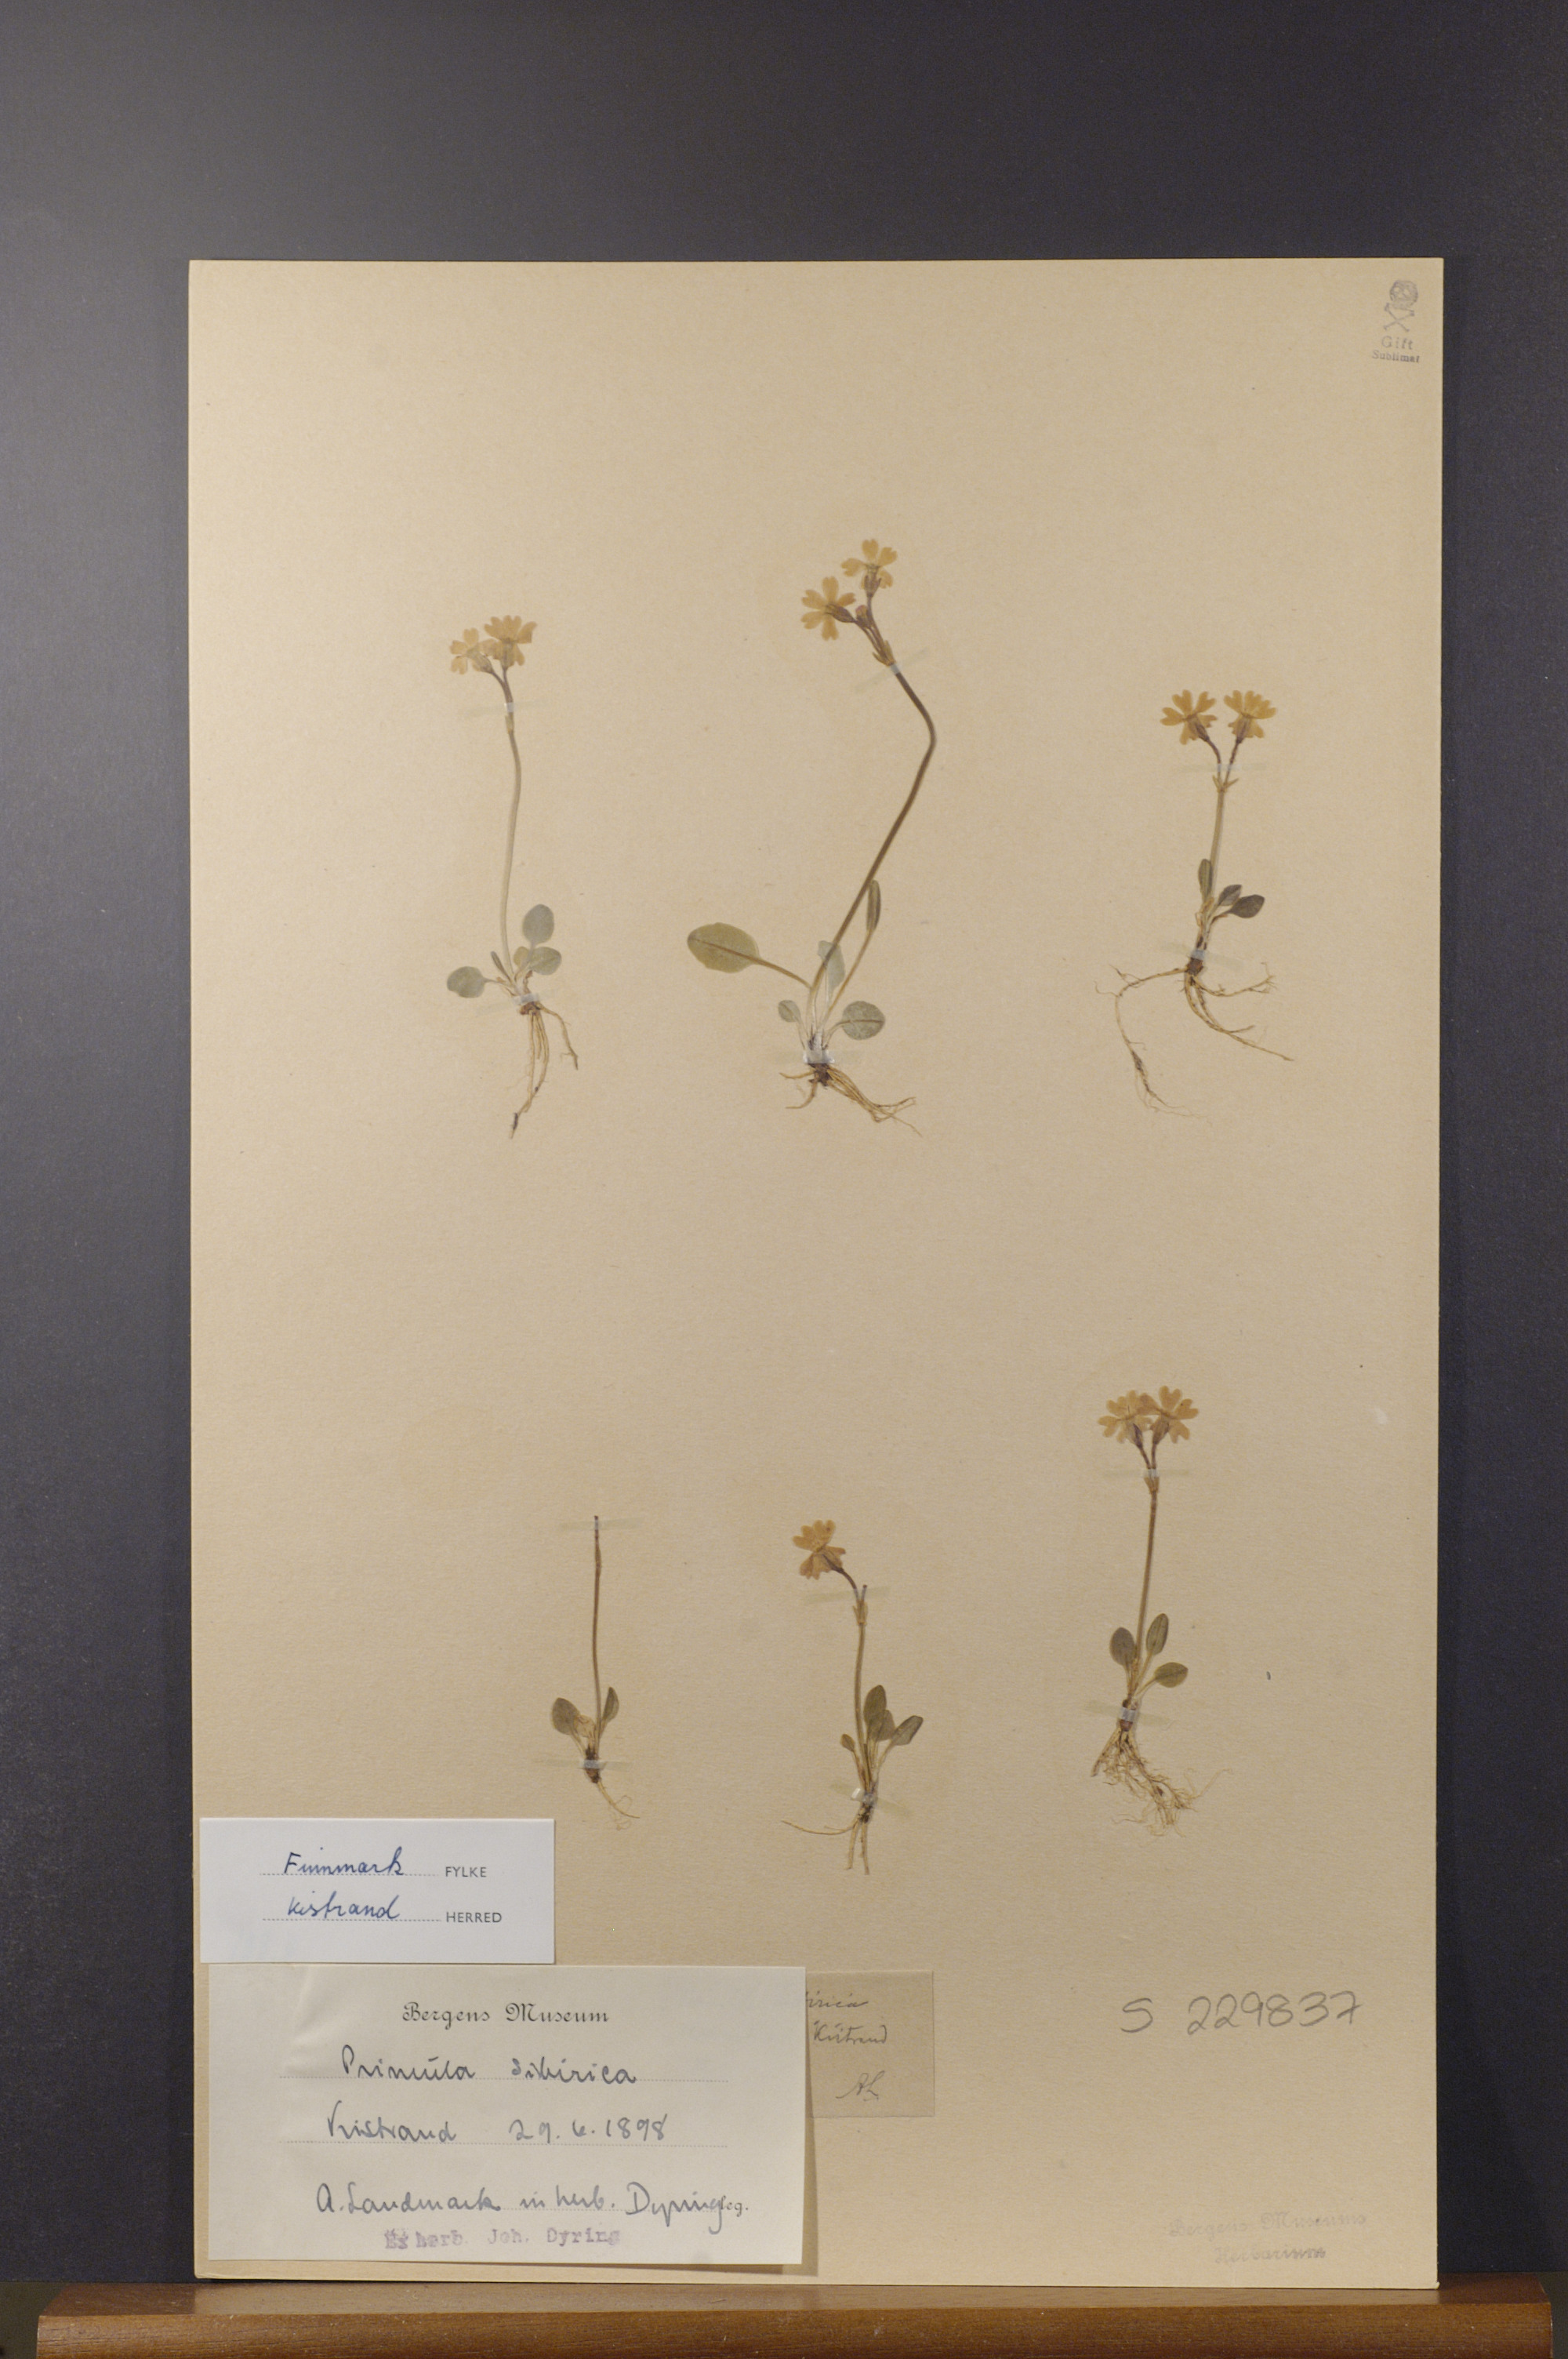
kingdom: Plantae
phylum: Tracheophyta
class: Magnoliopsida
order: Ericales
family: Primulaceae
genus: Primula
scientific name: Primula nutans
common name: Siberian primrose
